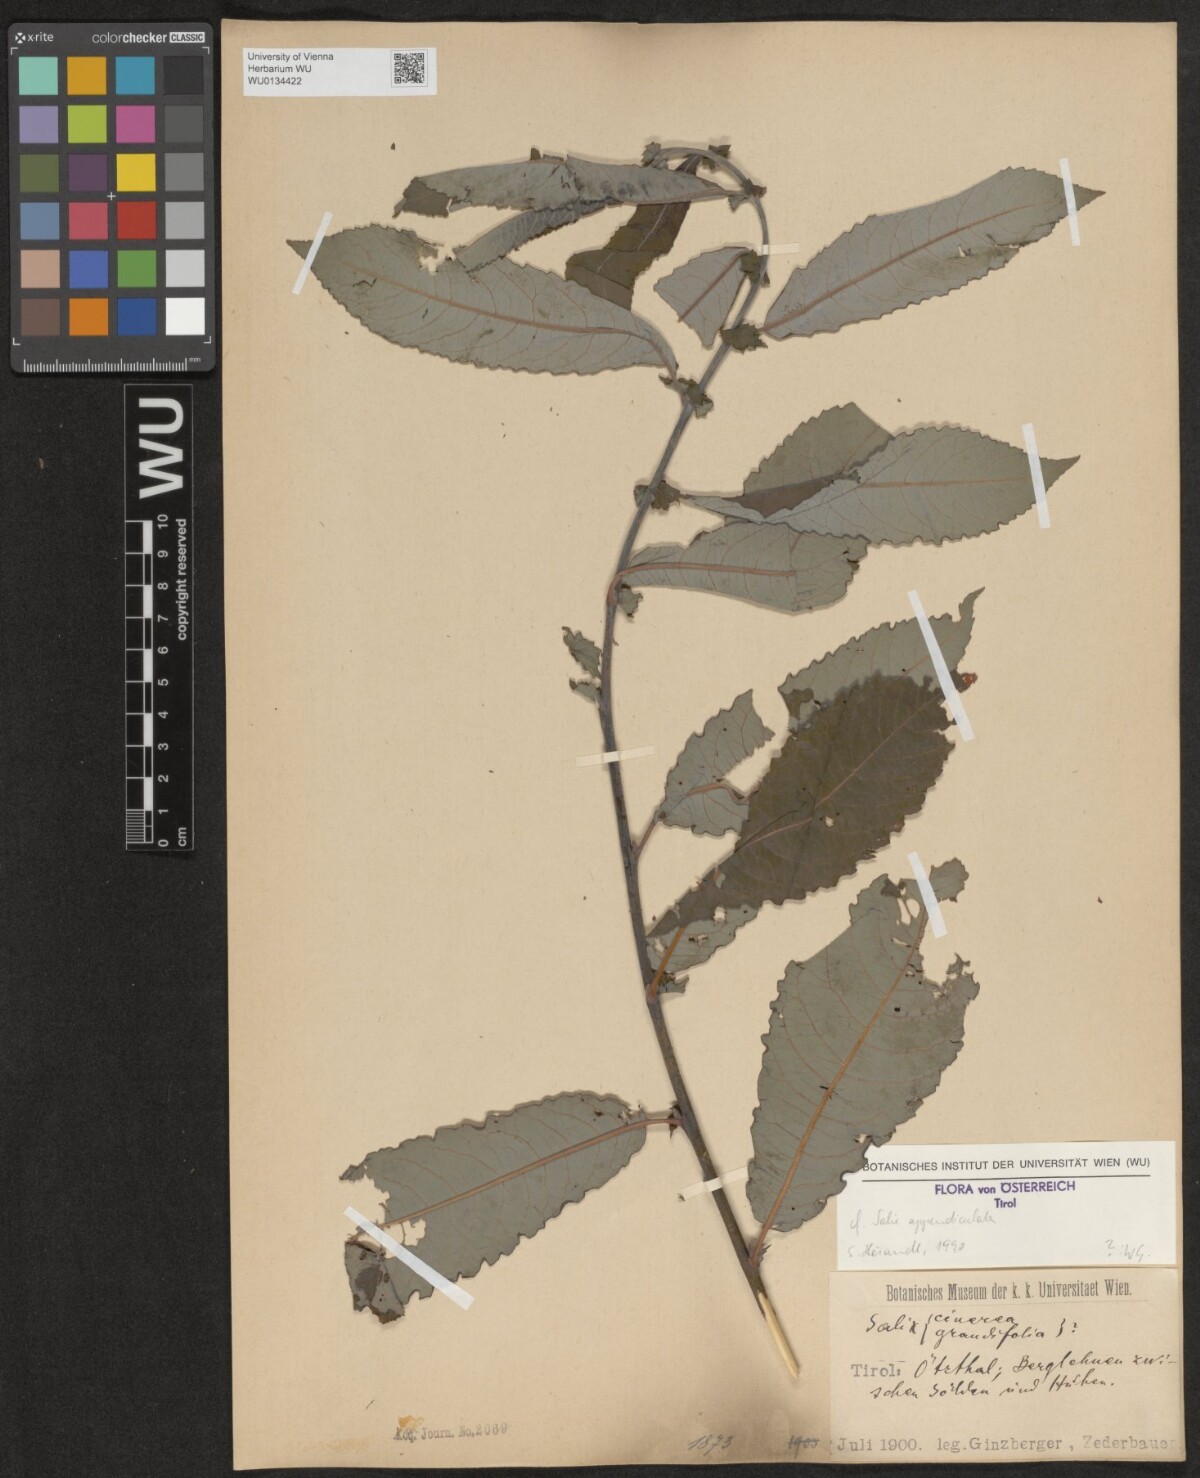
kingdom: Plantae
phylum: Tracheophyta
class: Magnoliopsida
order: Malpighiales
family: Salicaceae
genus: Salix
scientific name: Salix appendiculata
